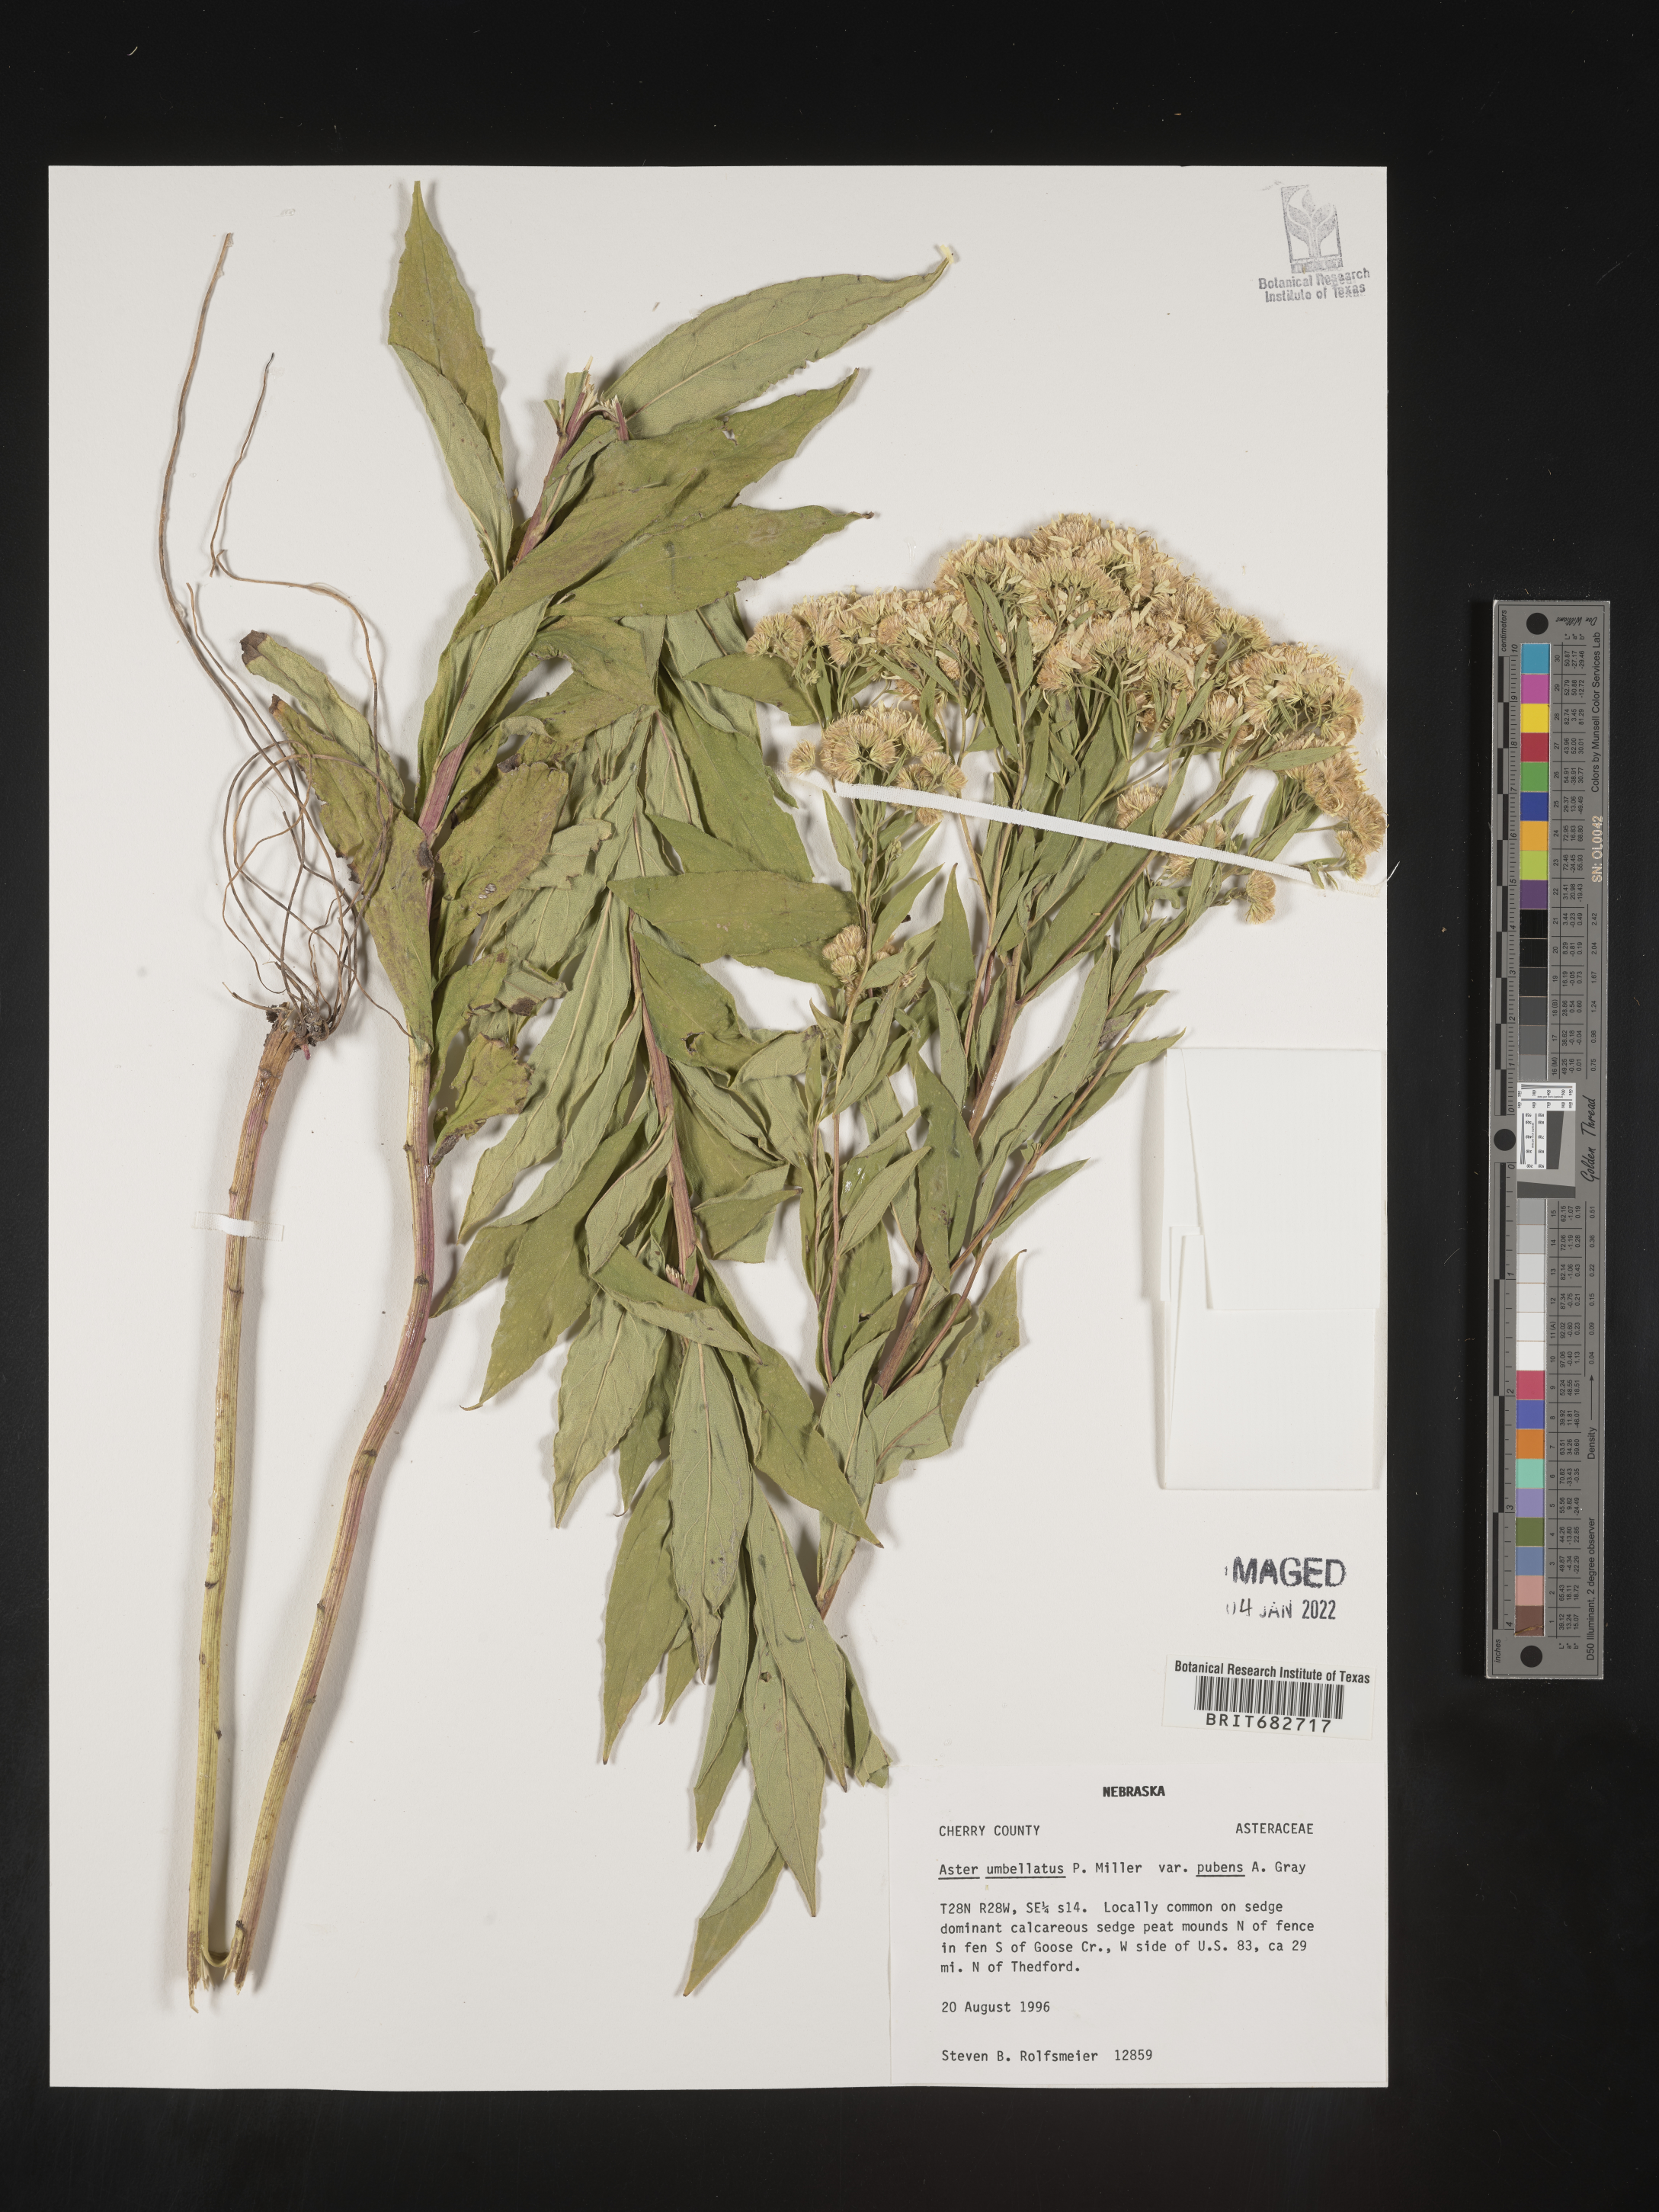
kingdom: Plantae
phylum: Tracheophyta
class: Magnoliopsida
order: Asterales
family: Asteraceae
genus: Doellingeria
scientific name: Doellingeria umbellata
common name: Flat-top white aster
